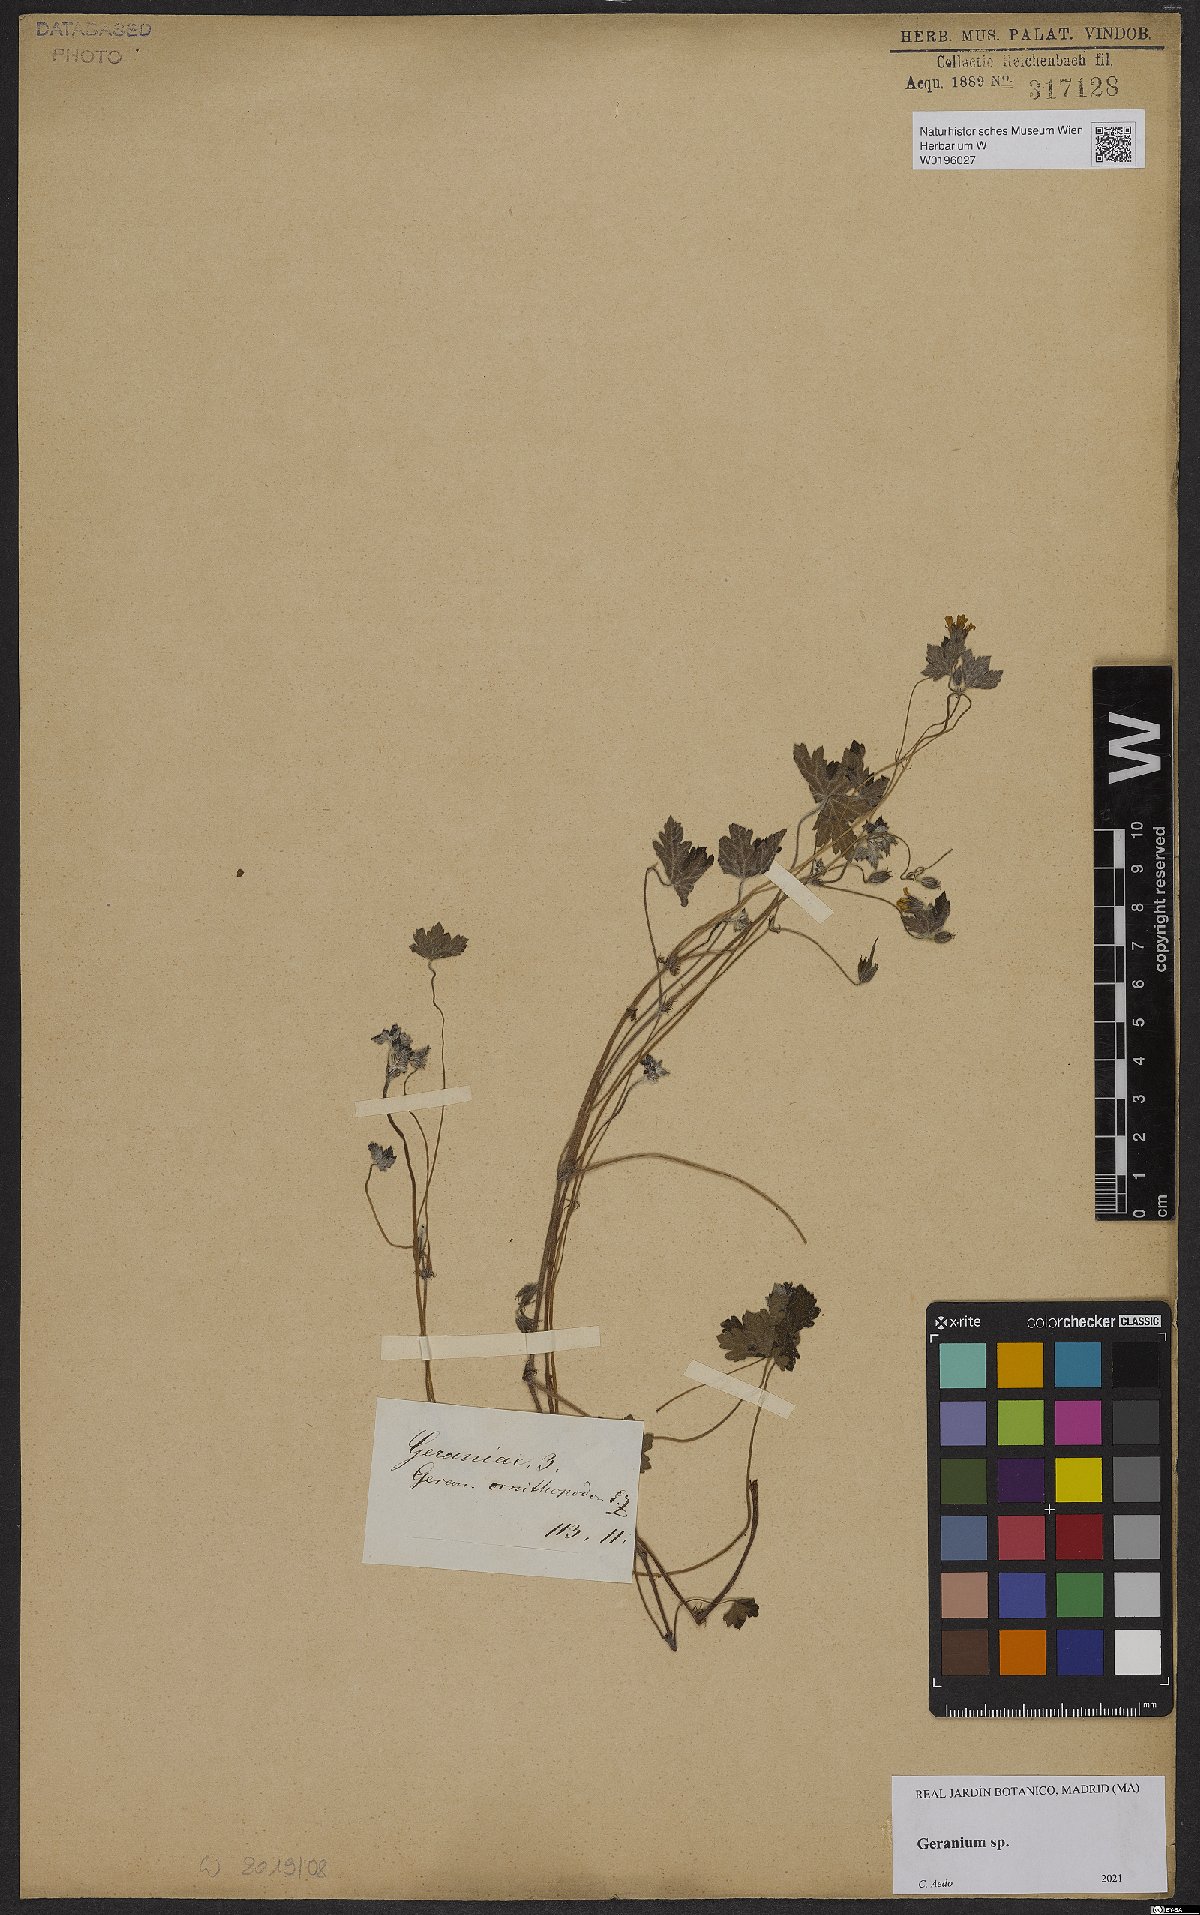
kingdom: Plantae
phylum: Tracheophyta
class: Magnoliopsida
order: Geraniales
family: Geraniaceae
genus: Geranium
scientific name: Geranium
